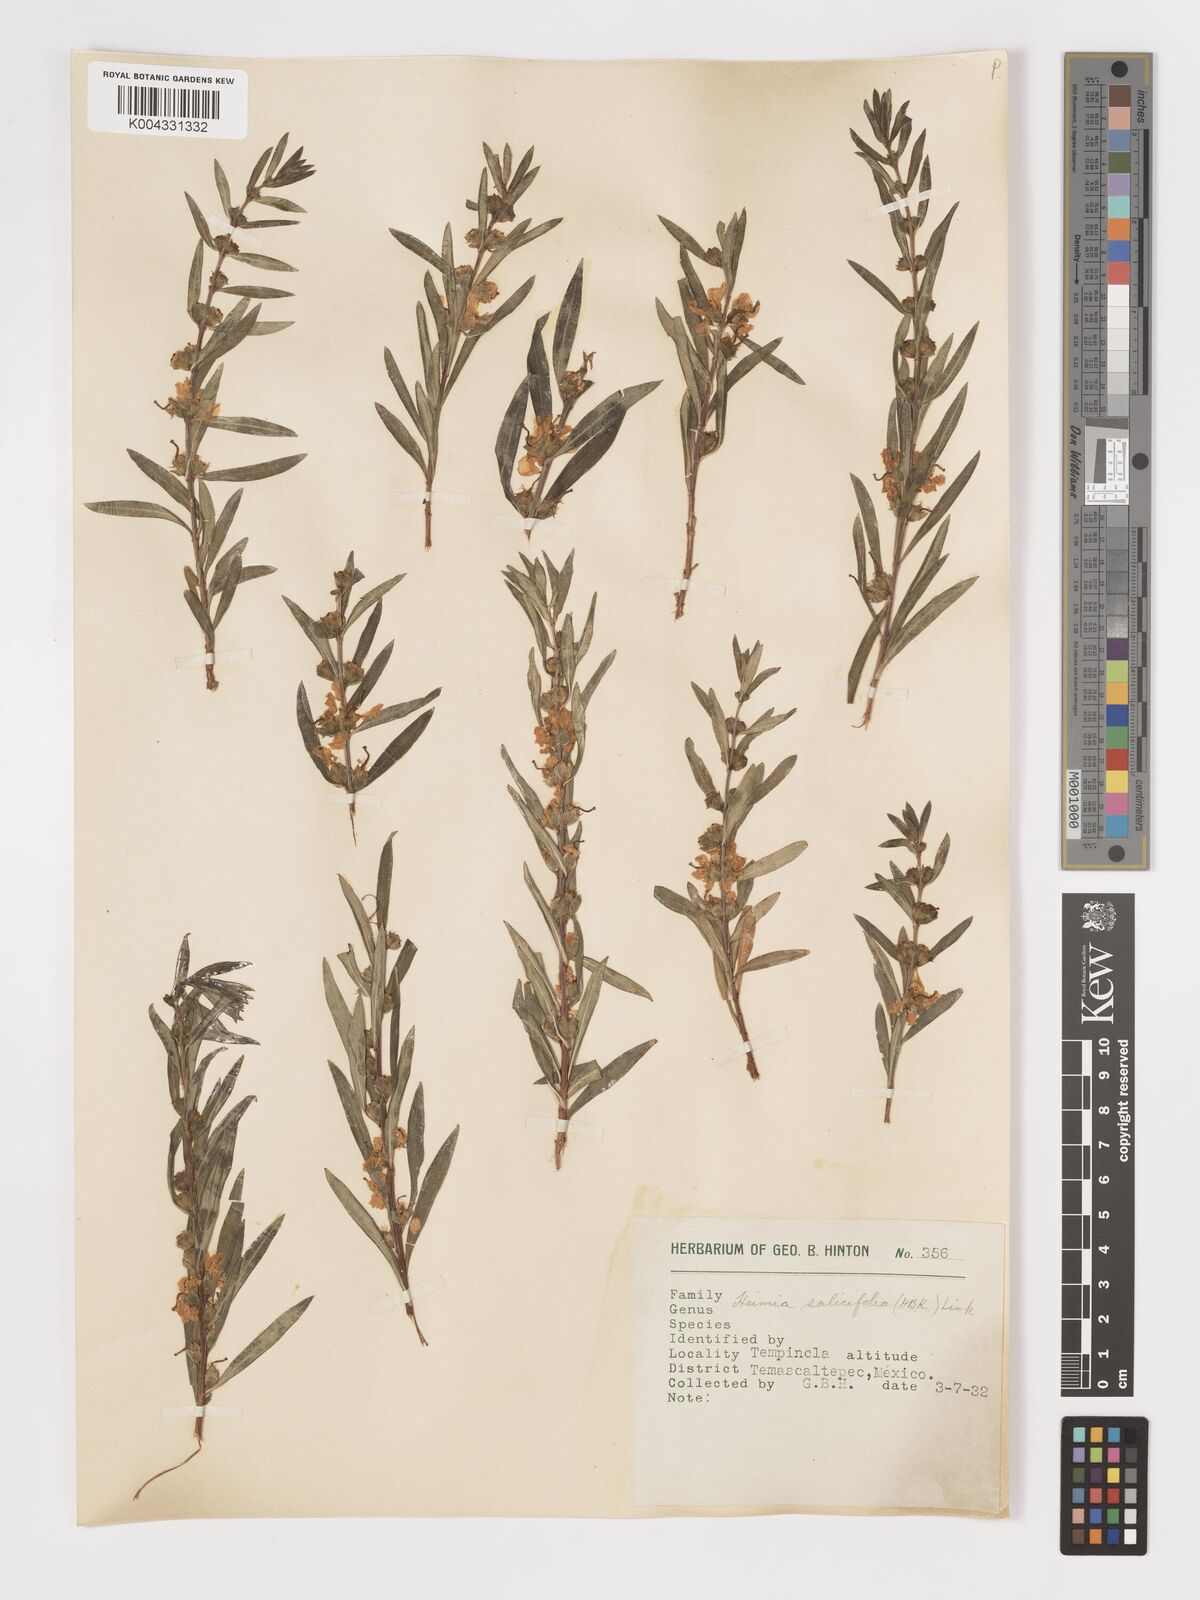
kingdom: Plantae
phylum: Tracheophyta
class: Magnoliopsida
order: Myrtales
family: Lythraceae
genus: Heimia
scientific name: Heimia salicifolia
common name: Willow-leaf heimia
